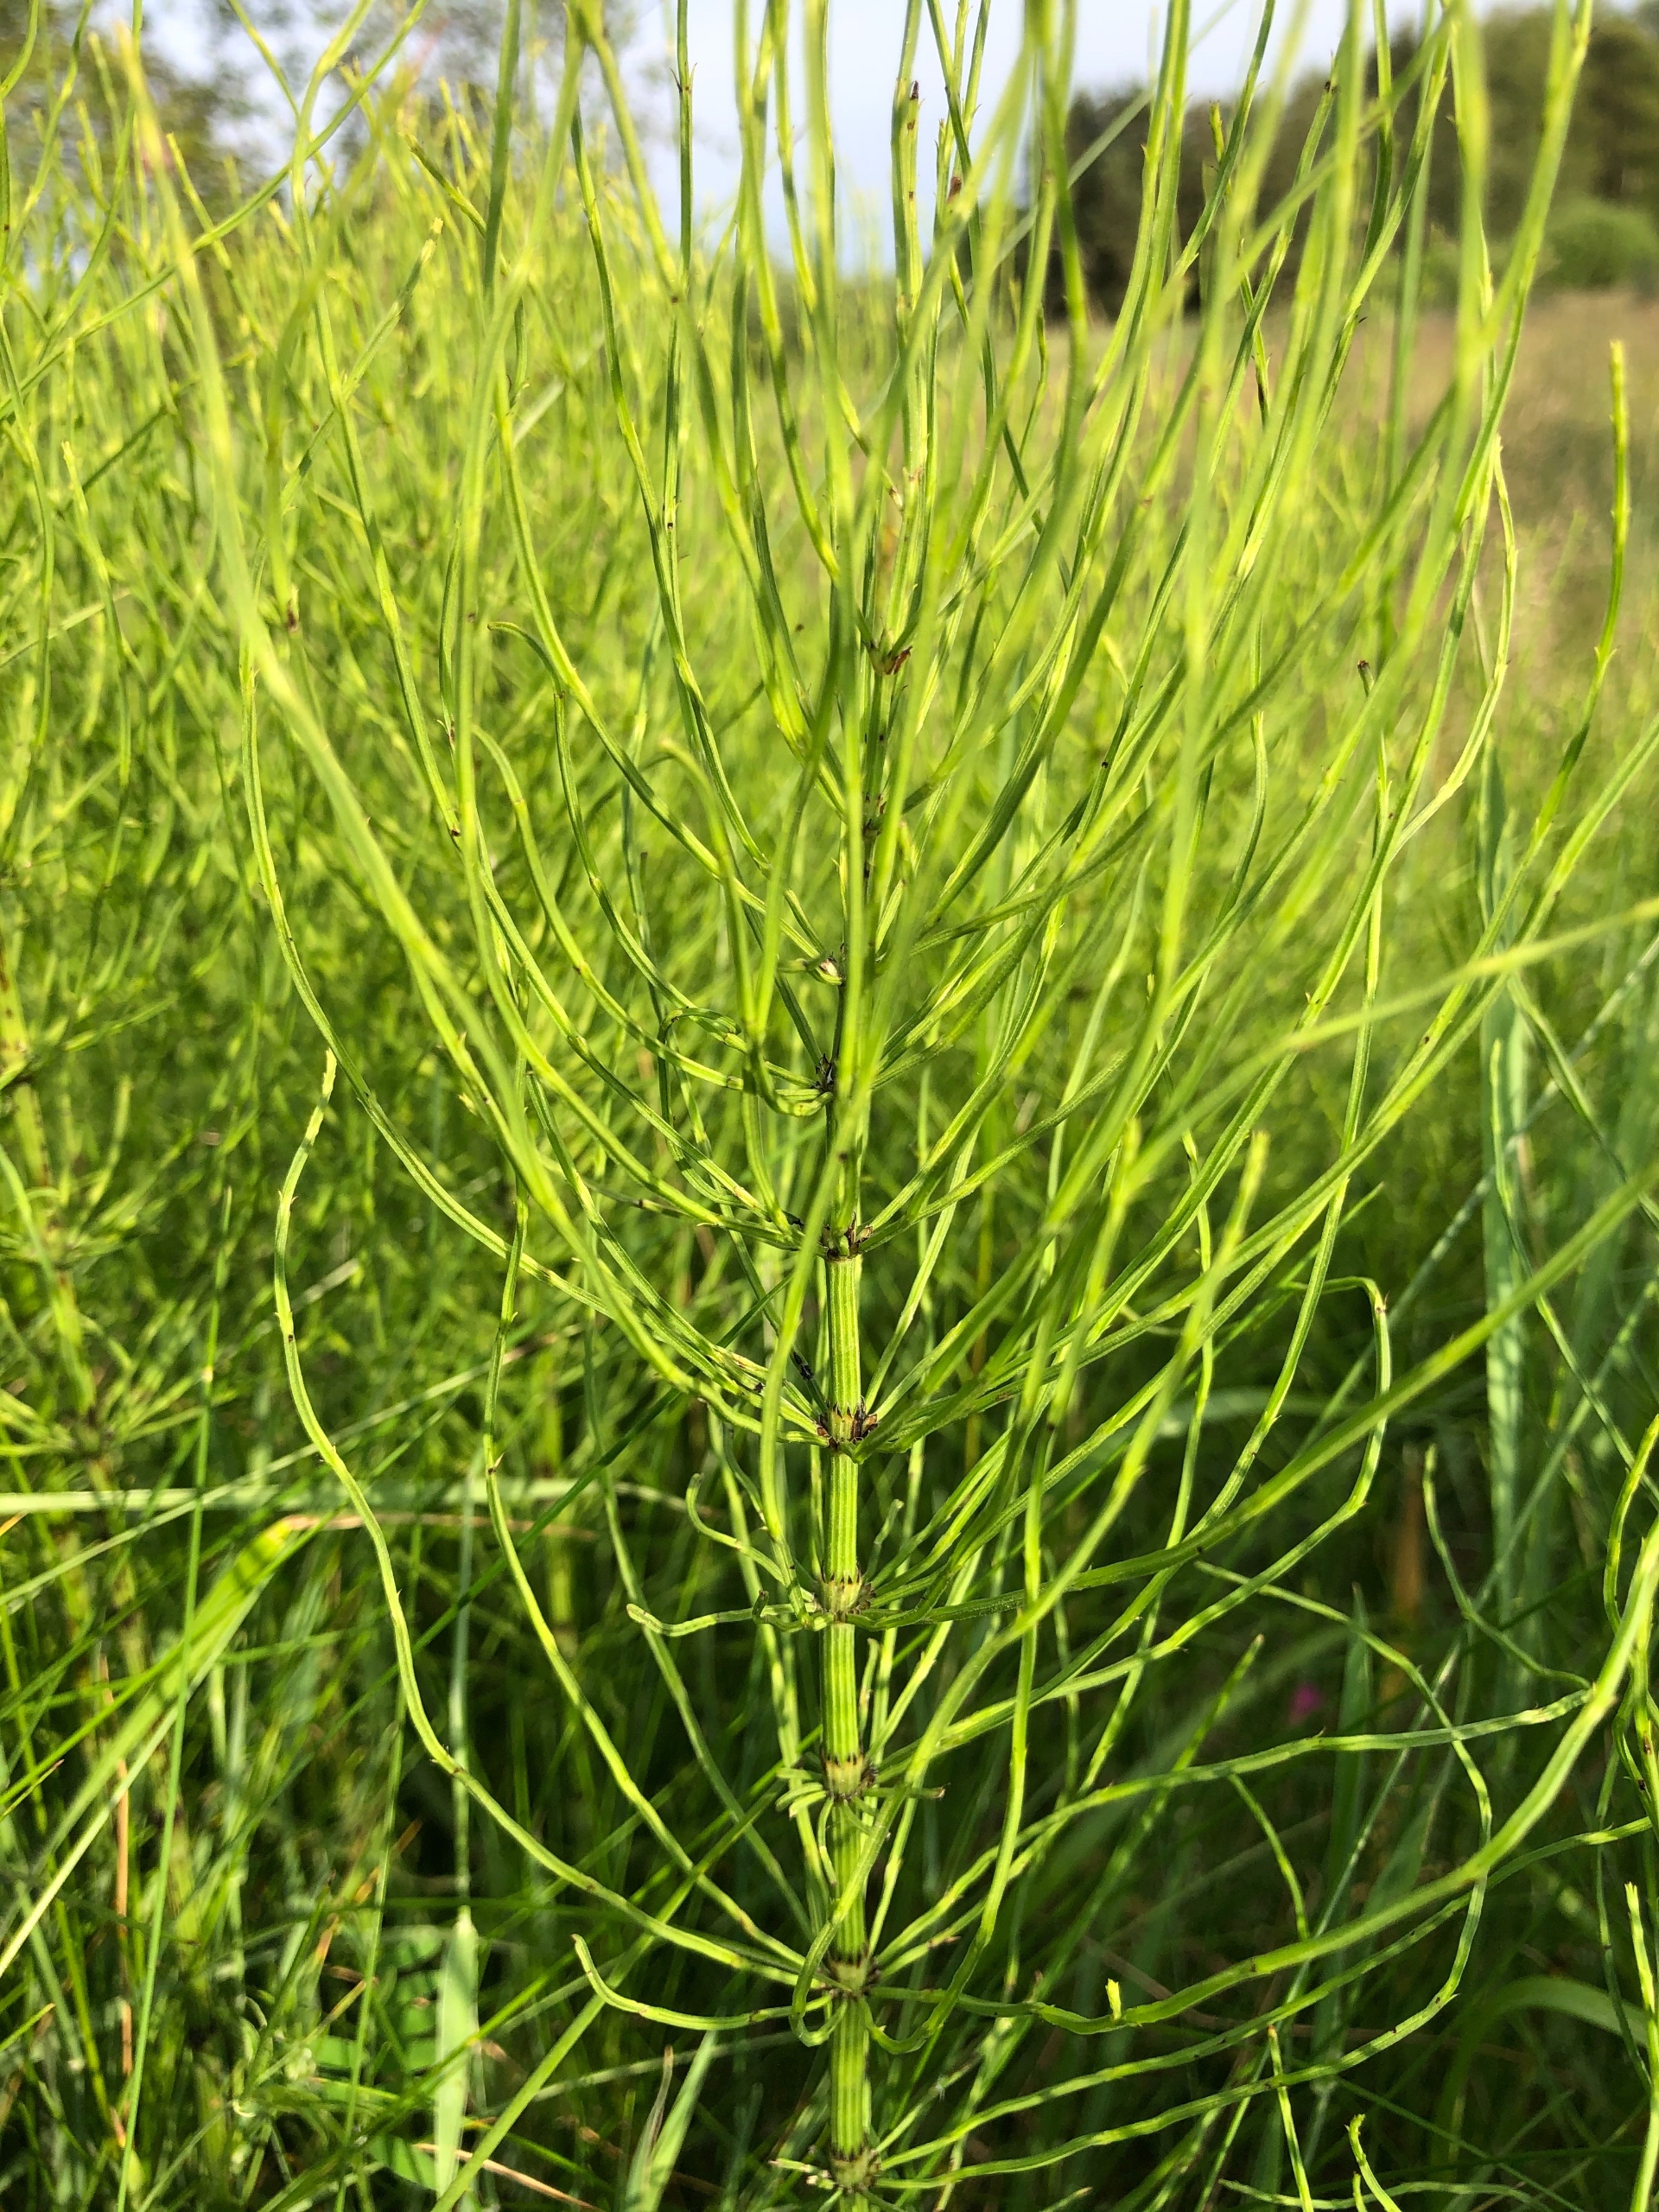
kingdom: Plantae
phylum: Tracheophyta
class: Polypodiopsida
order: Equisetales
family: Equisetaceae
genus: Equisetum
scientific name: Equisetum arvense
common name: Ager-padderok
